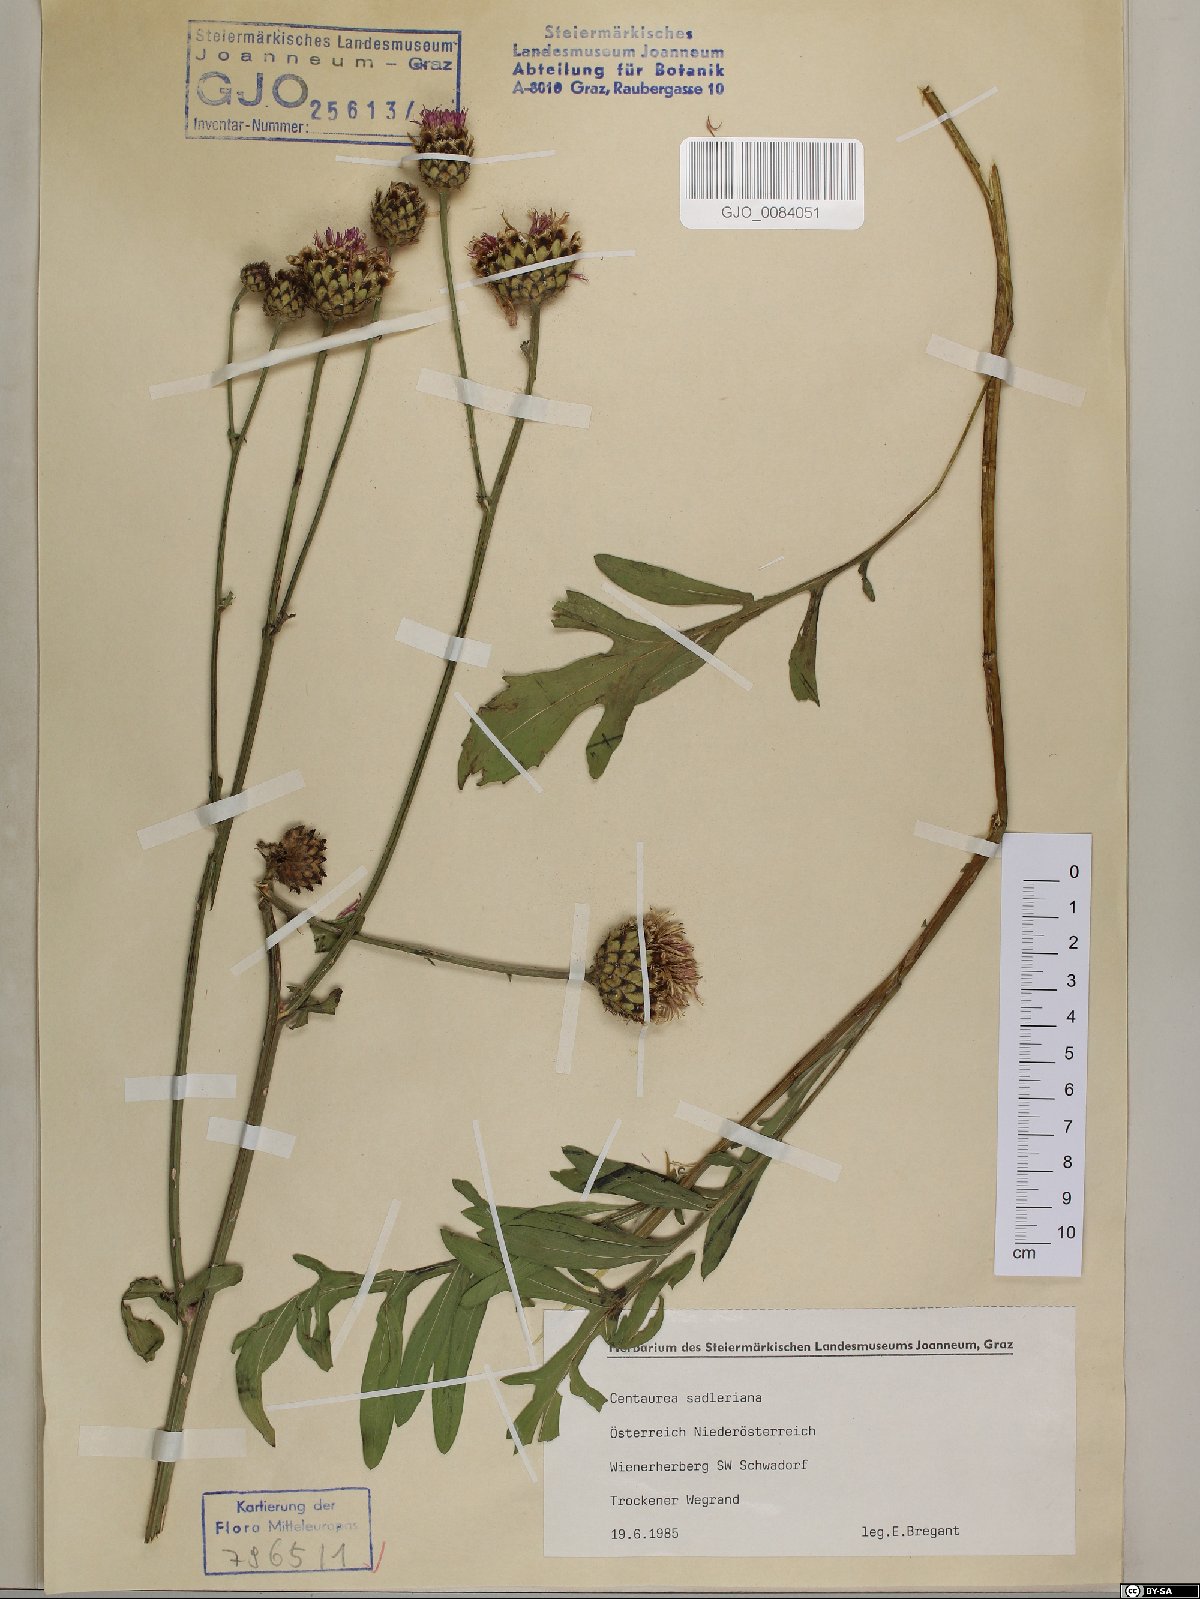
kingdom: Plantae
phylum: Tracheophyta
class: Magnoliopsida
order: Asterales
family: Asteraceae
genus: Centaurea
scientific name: Centaurea sadleriana
